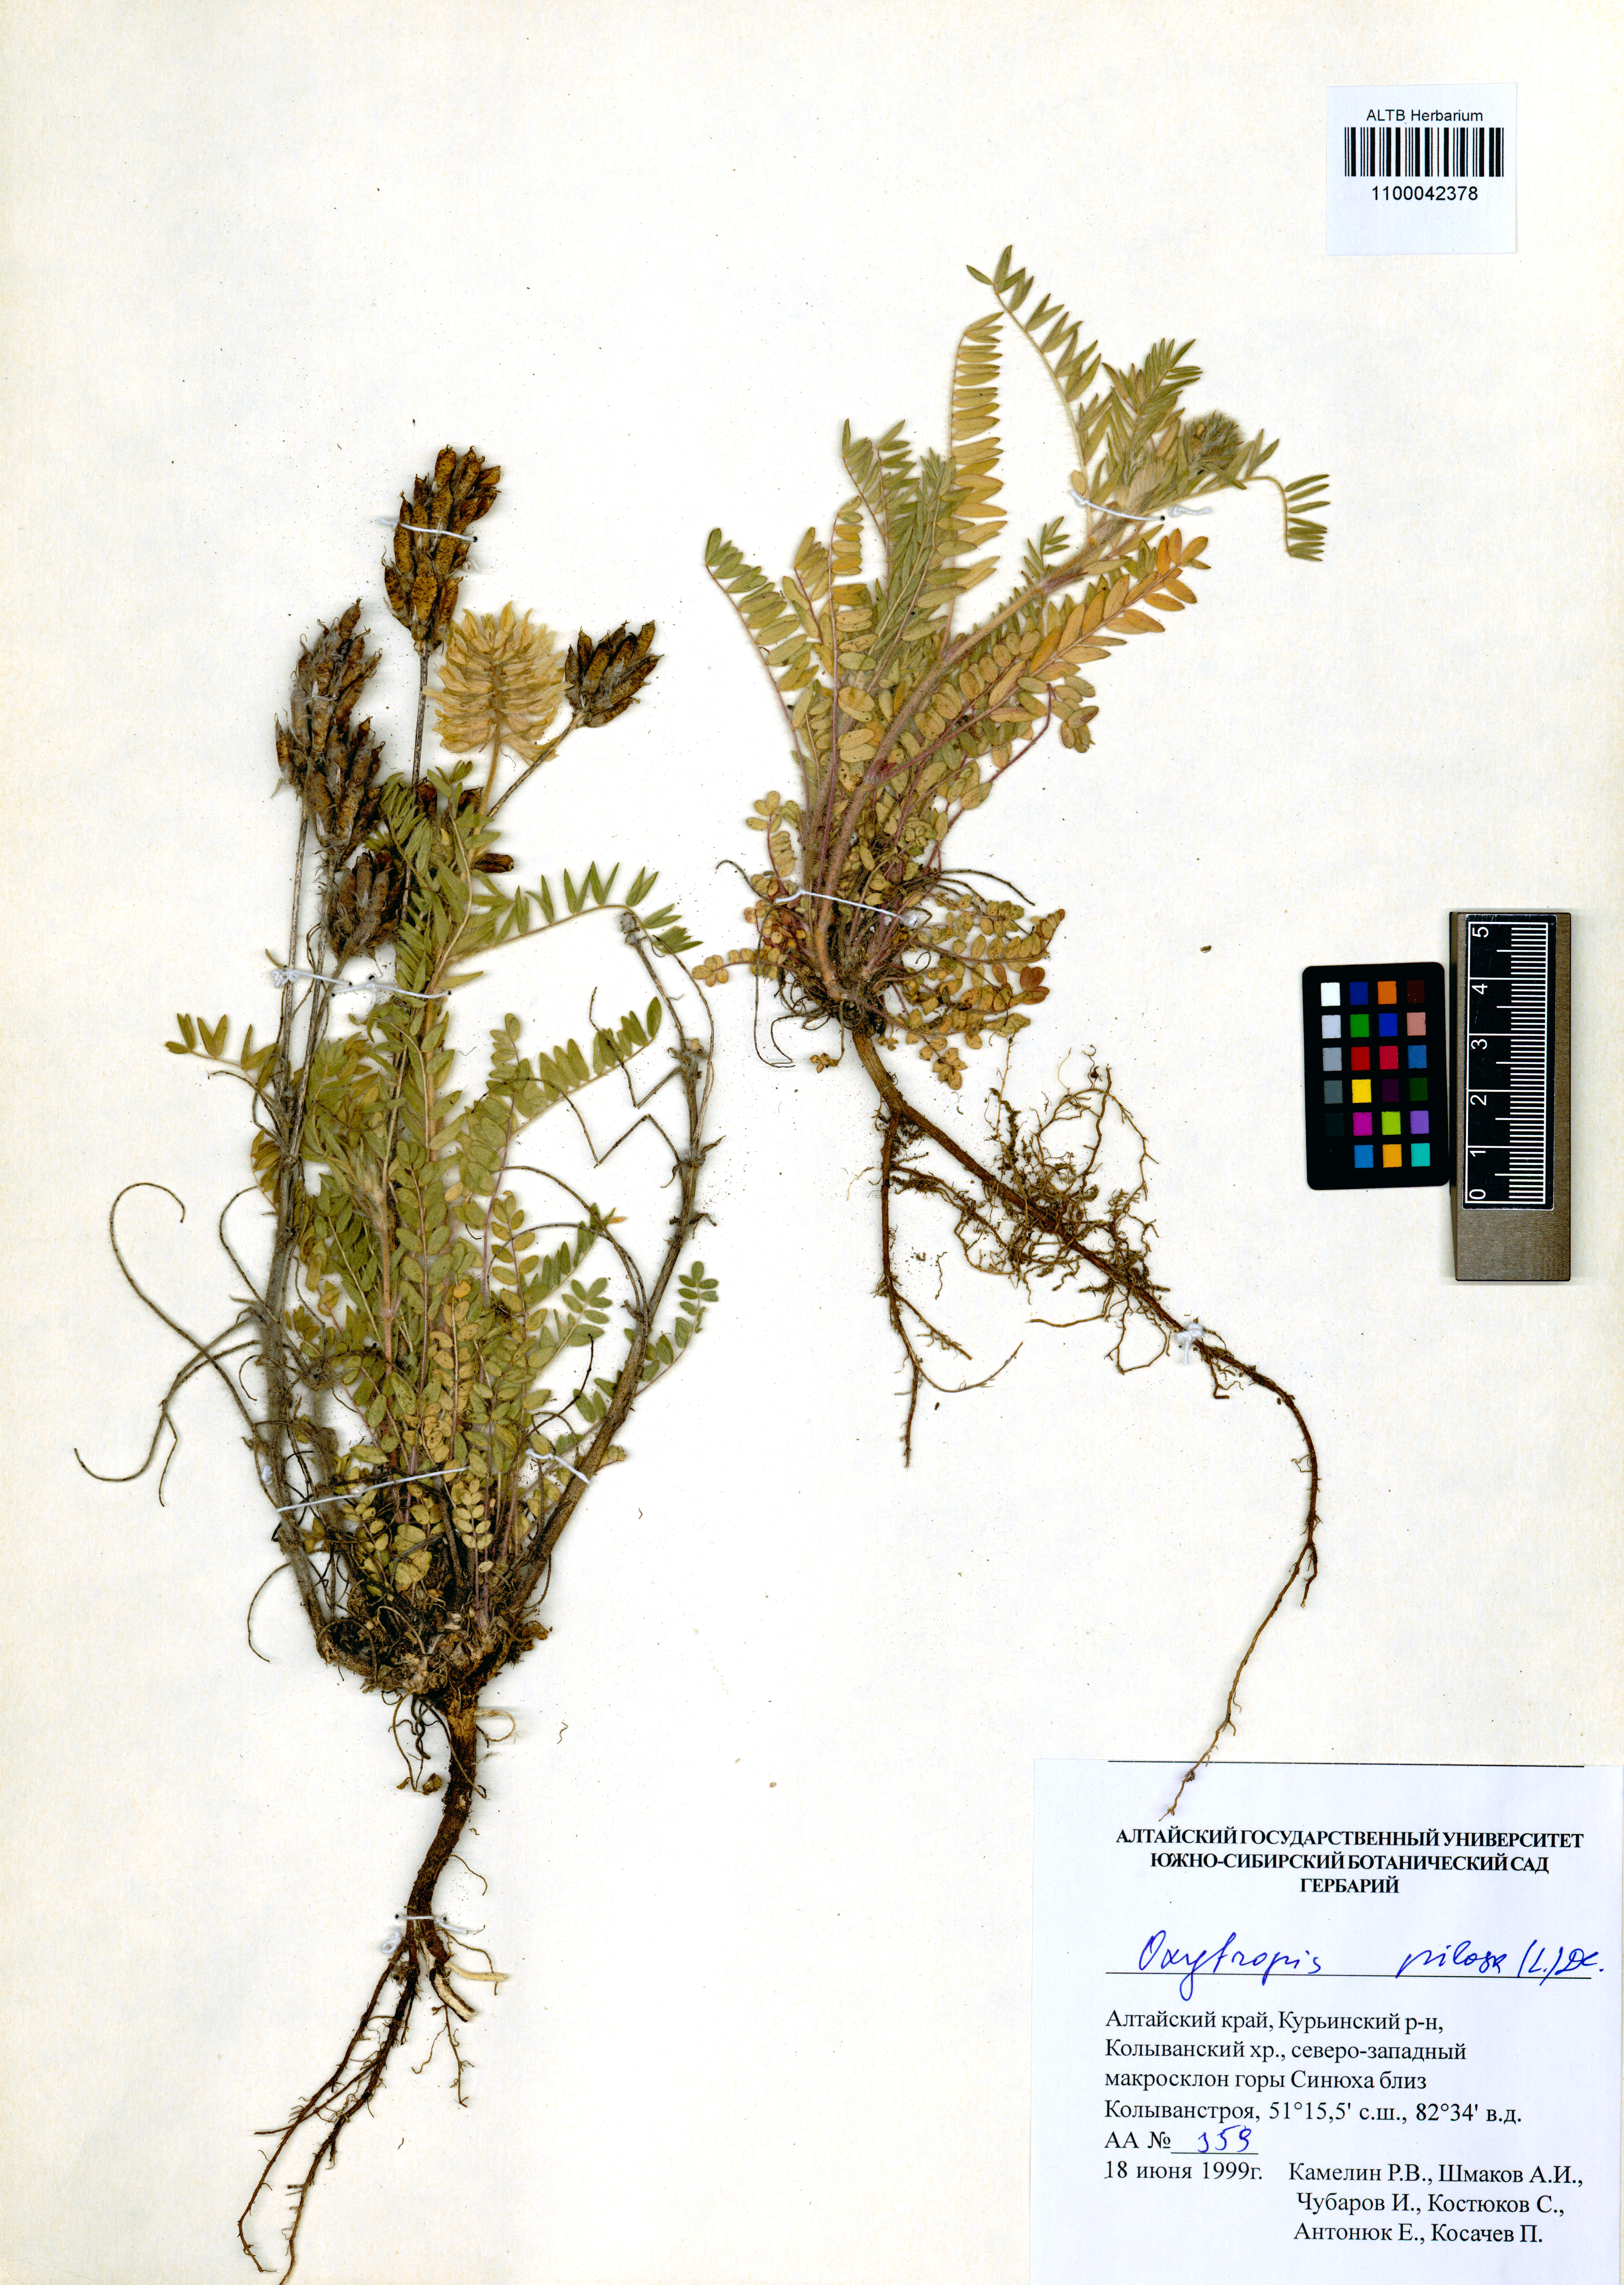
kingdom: Plantae
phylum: Tracheophyta
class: Magnoliopsida
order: Fabales
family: Fabaceae
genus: Oxytropis
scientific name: Oxytropis pilosa
